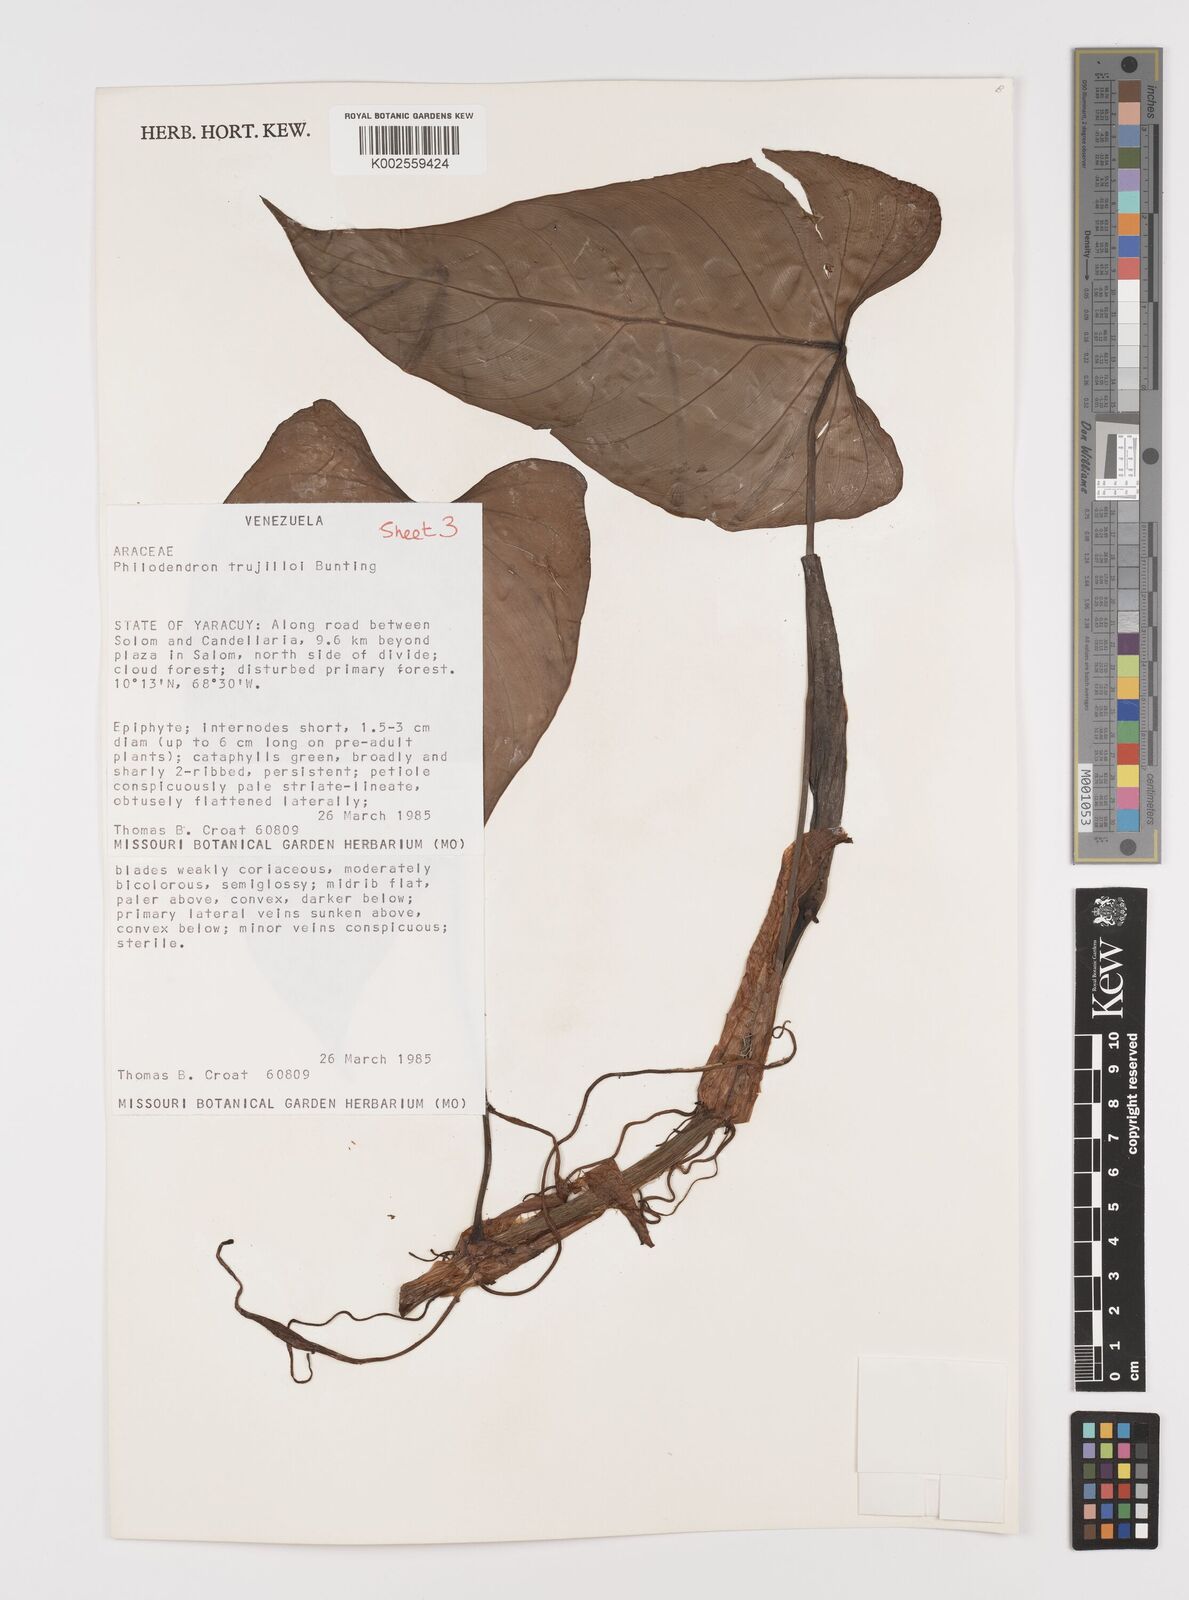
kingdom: Plantae
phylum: Tracheophyta
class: Liliopsida
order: Alismatales
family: Araceae
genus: Philodendron
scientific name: Philodendron trujilloi
